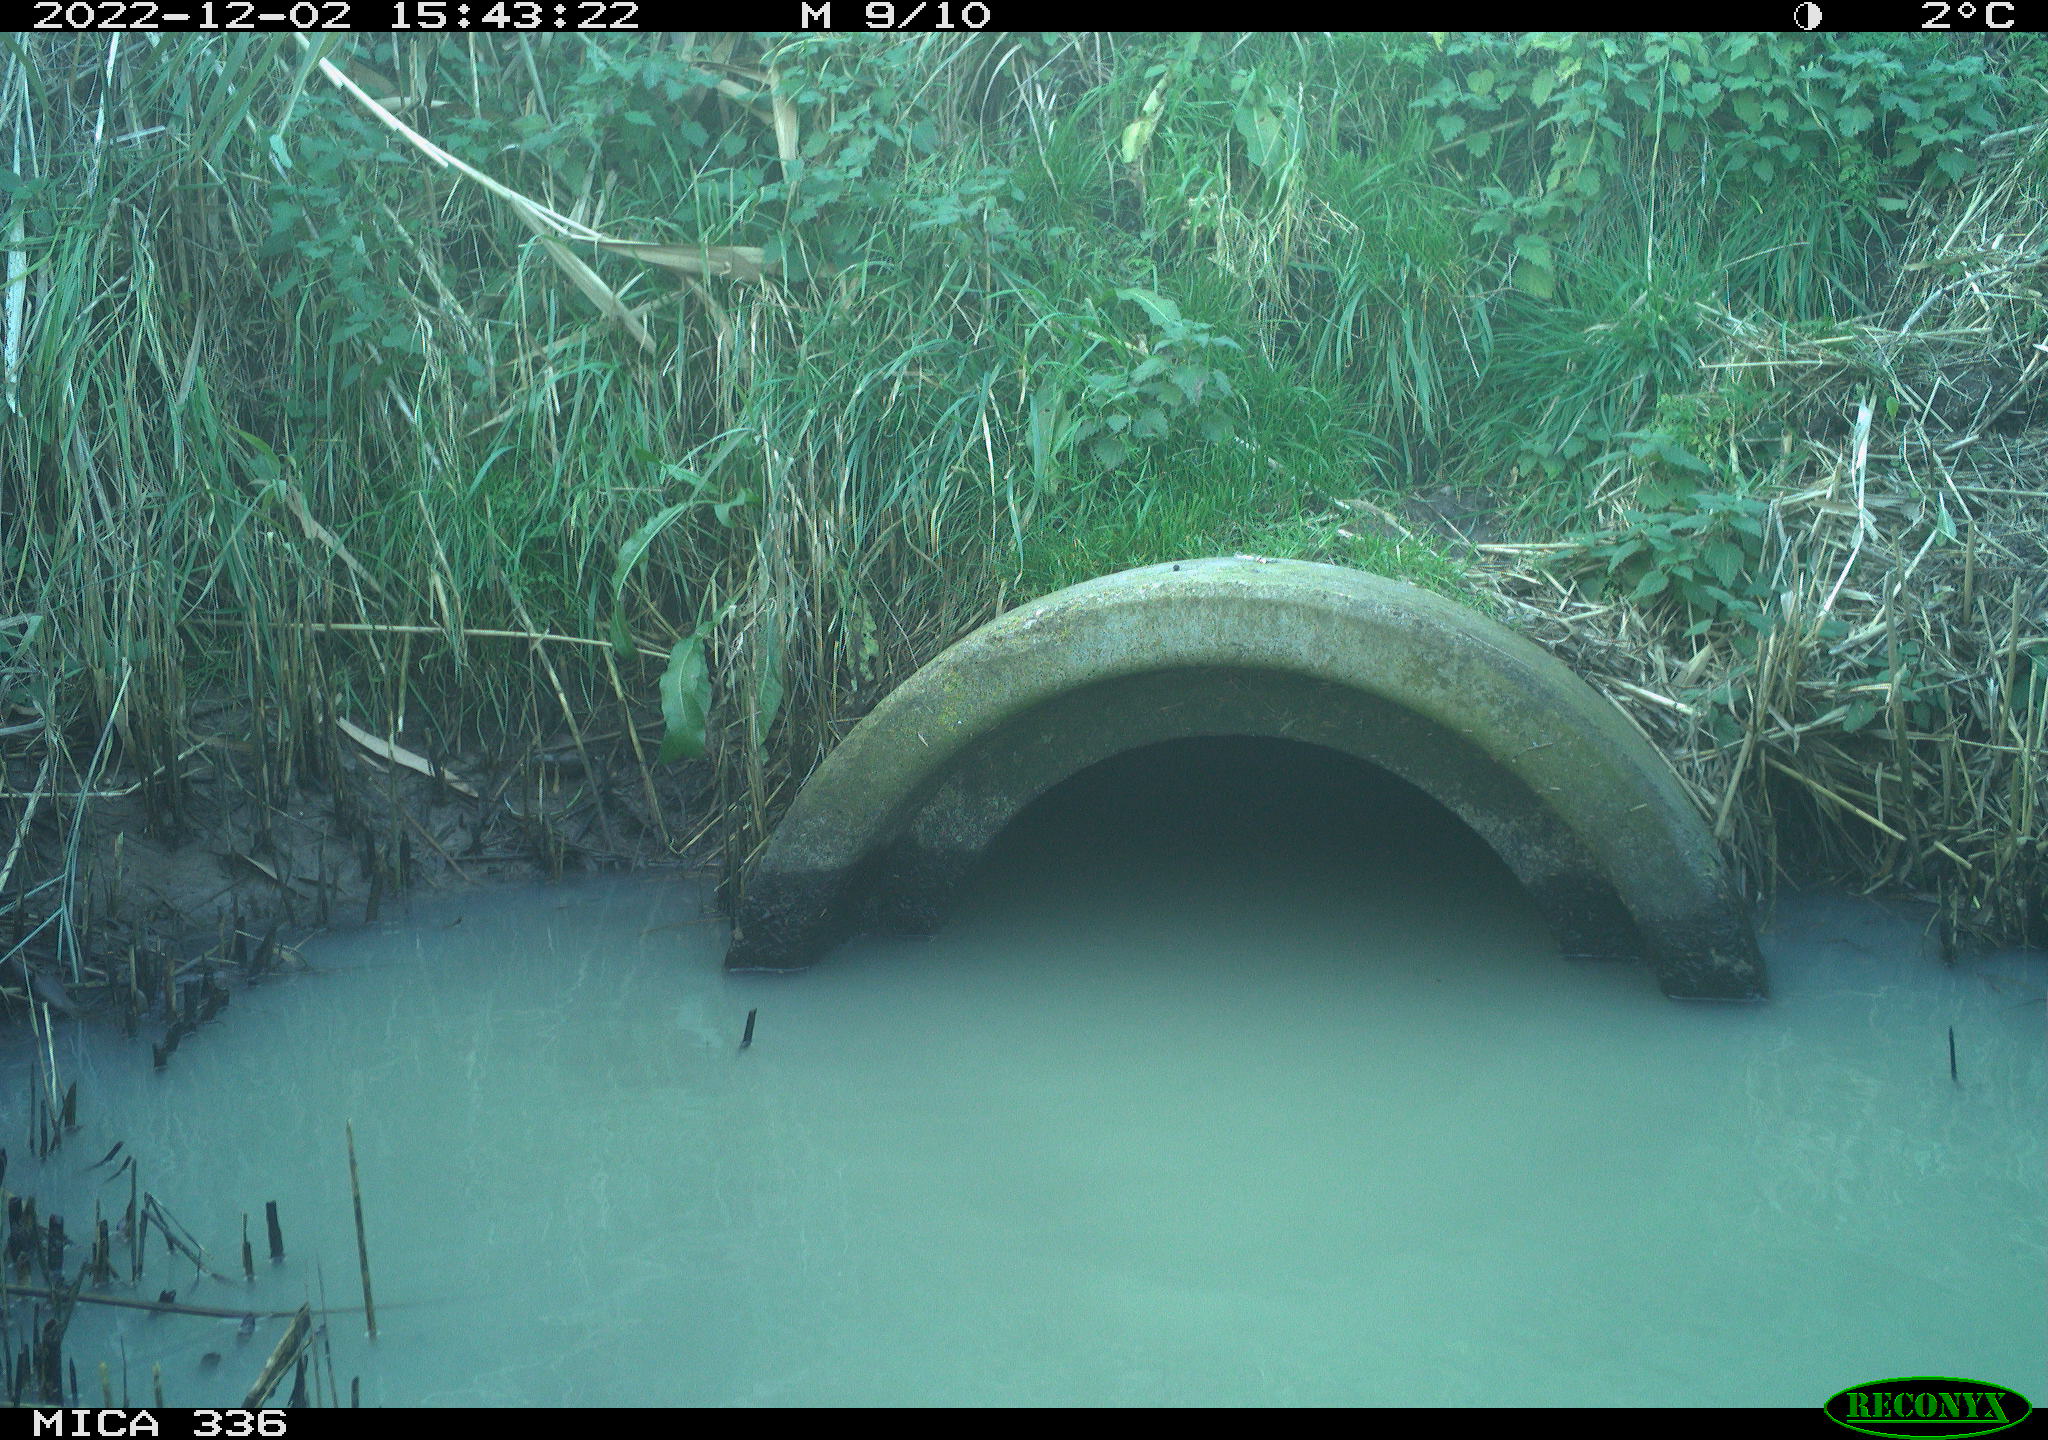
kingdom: Animalia
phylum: Chordata
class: Aves
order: Gruiformes
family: Rallidae
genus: Gallinula
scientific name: Gallinula chloropus
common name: Common moorhen
